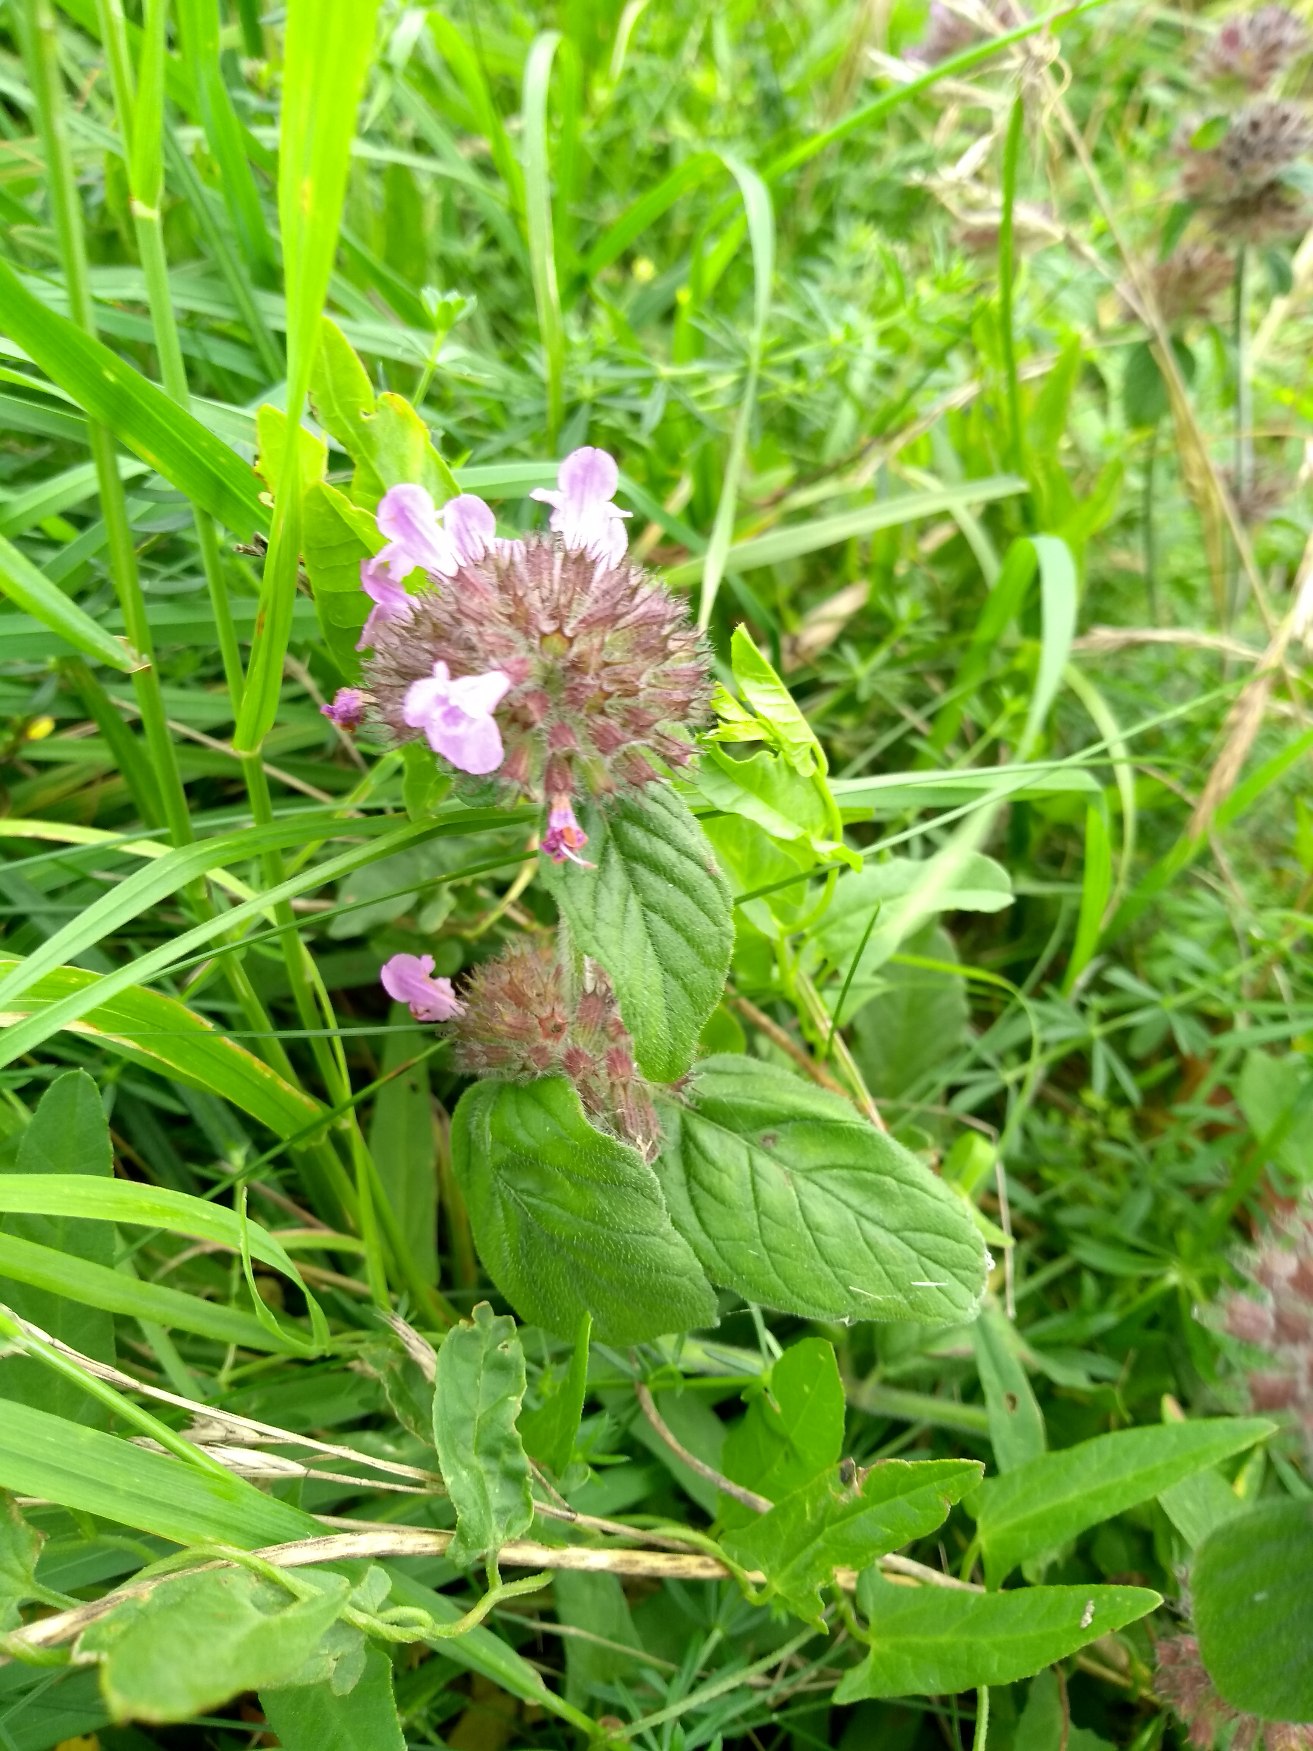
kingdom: Plantae
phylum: Tracheophyta
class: Magnoliopsida
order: Lamiales
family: Lamiaceae
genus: Clinopodium
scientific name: Clinopodium vulgare
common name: Kransbørste
